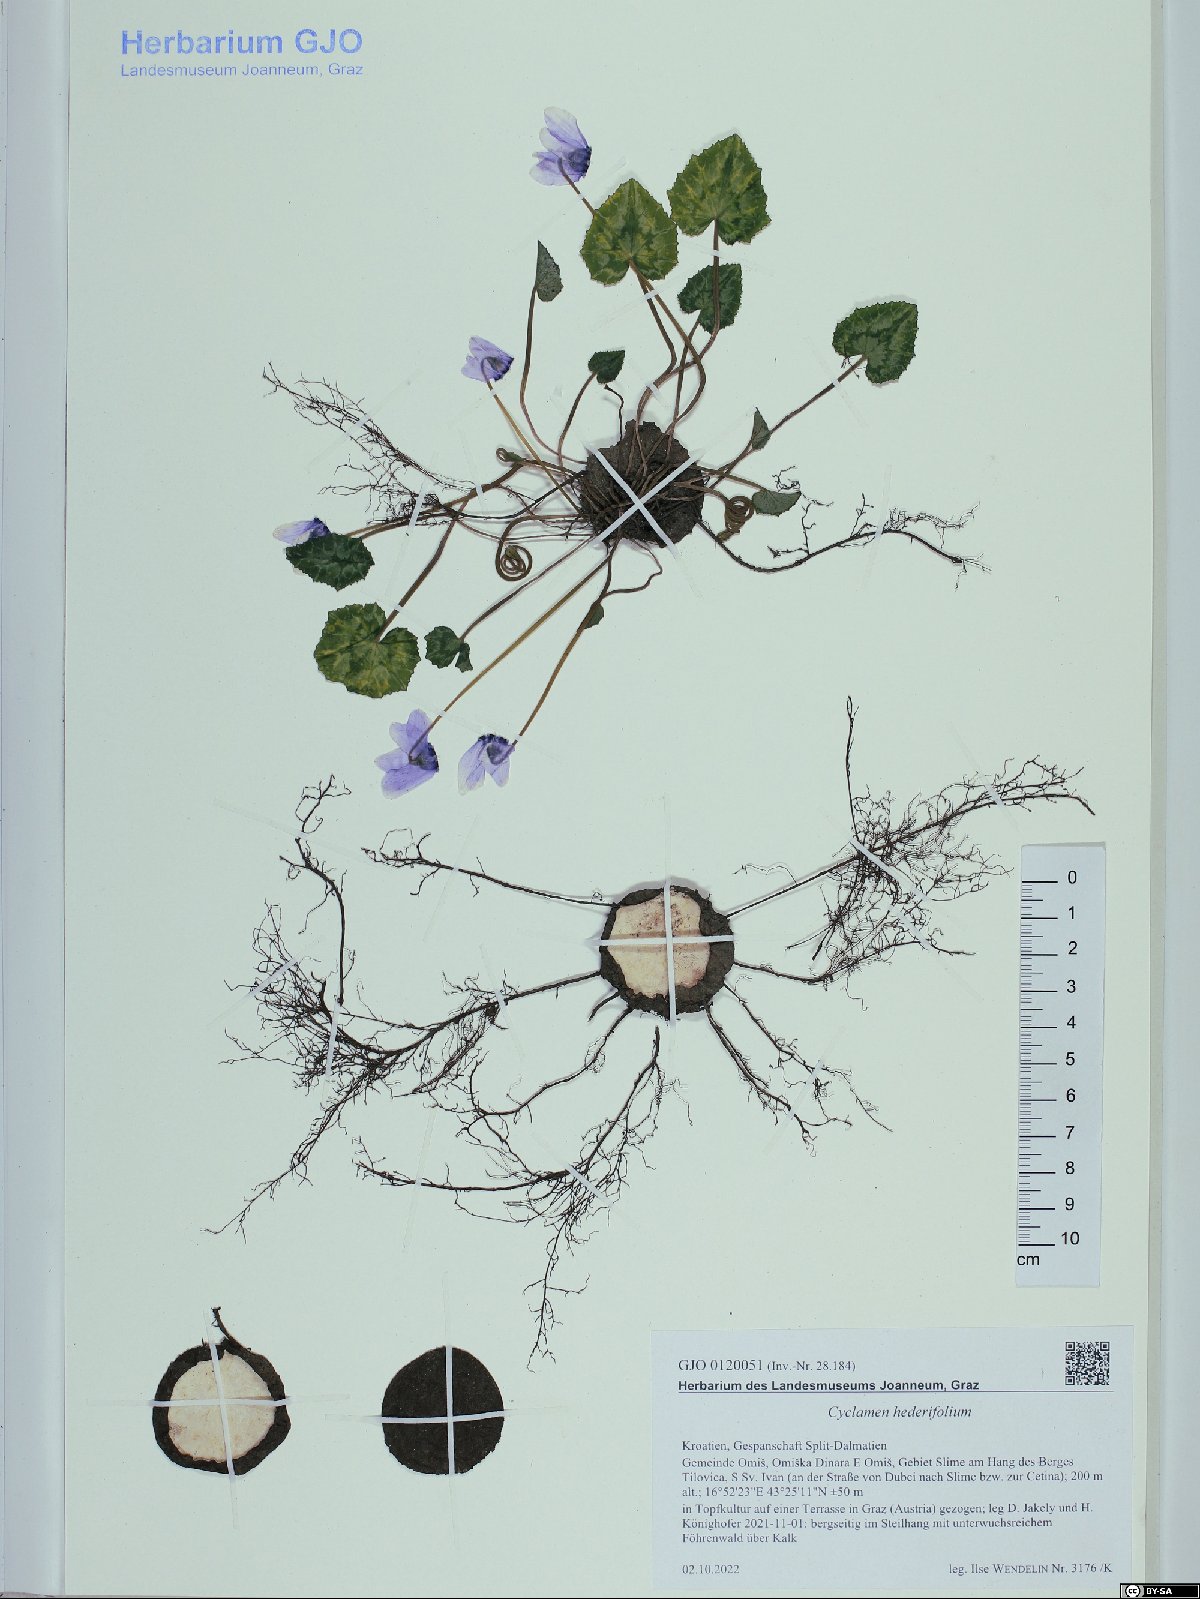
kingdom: Plantae
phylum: Tracheophyta
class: Magnoliopsida
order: Ericales
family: Primulaceae
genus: Cyclamen
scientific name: Cyclamen hederifolium
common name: Sowbread
